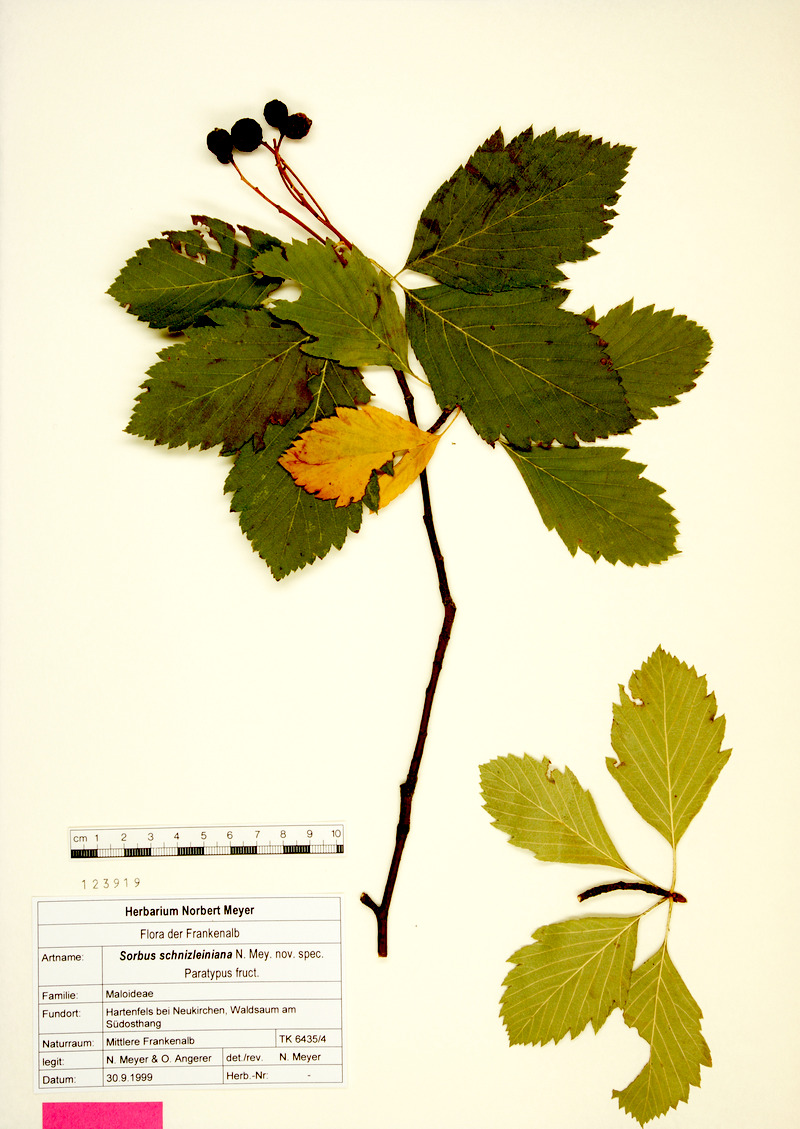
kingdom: Plantae
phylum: Tracheophyta
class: Magnoliopsida
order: Rosales
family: Rosaceae
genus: Karpatiosorbus
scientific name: Karpatiosorbus schnizleiniana
